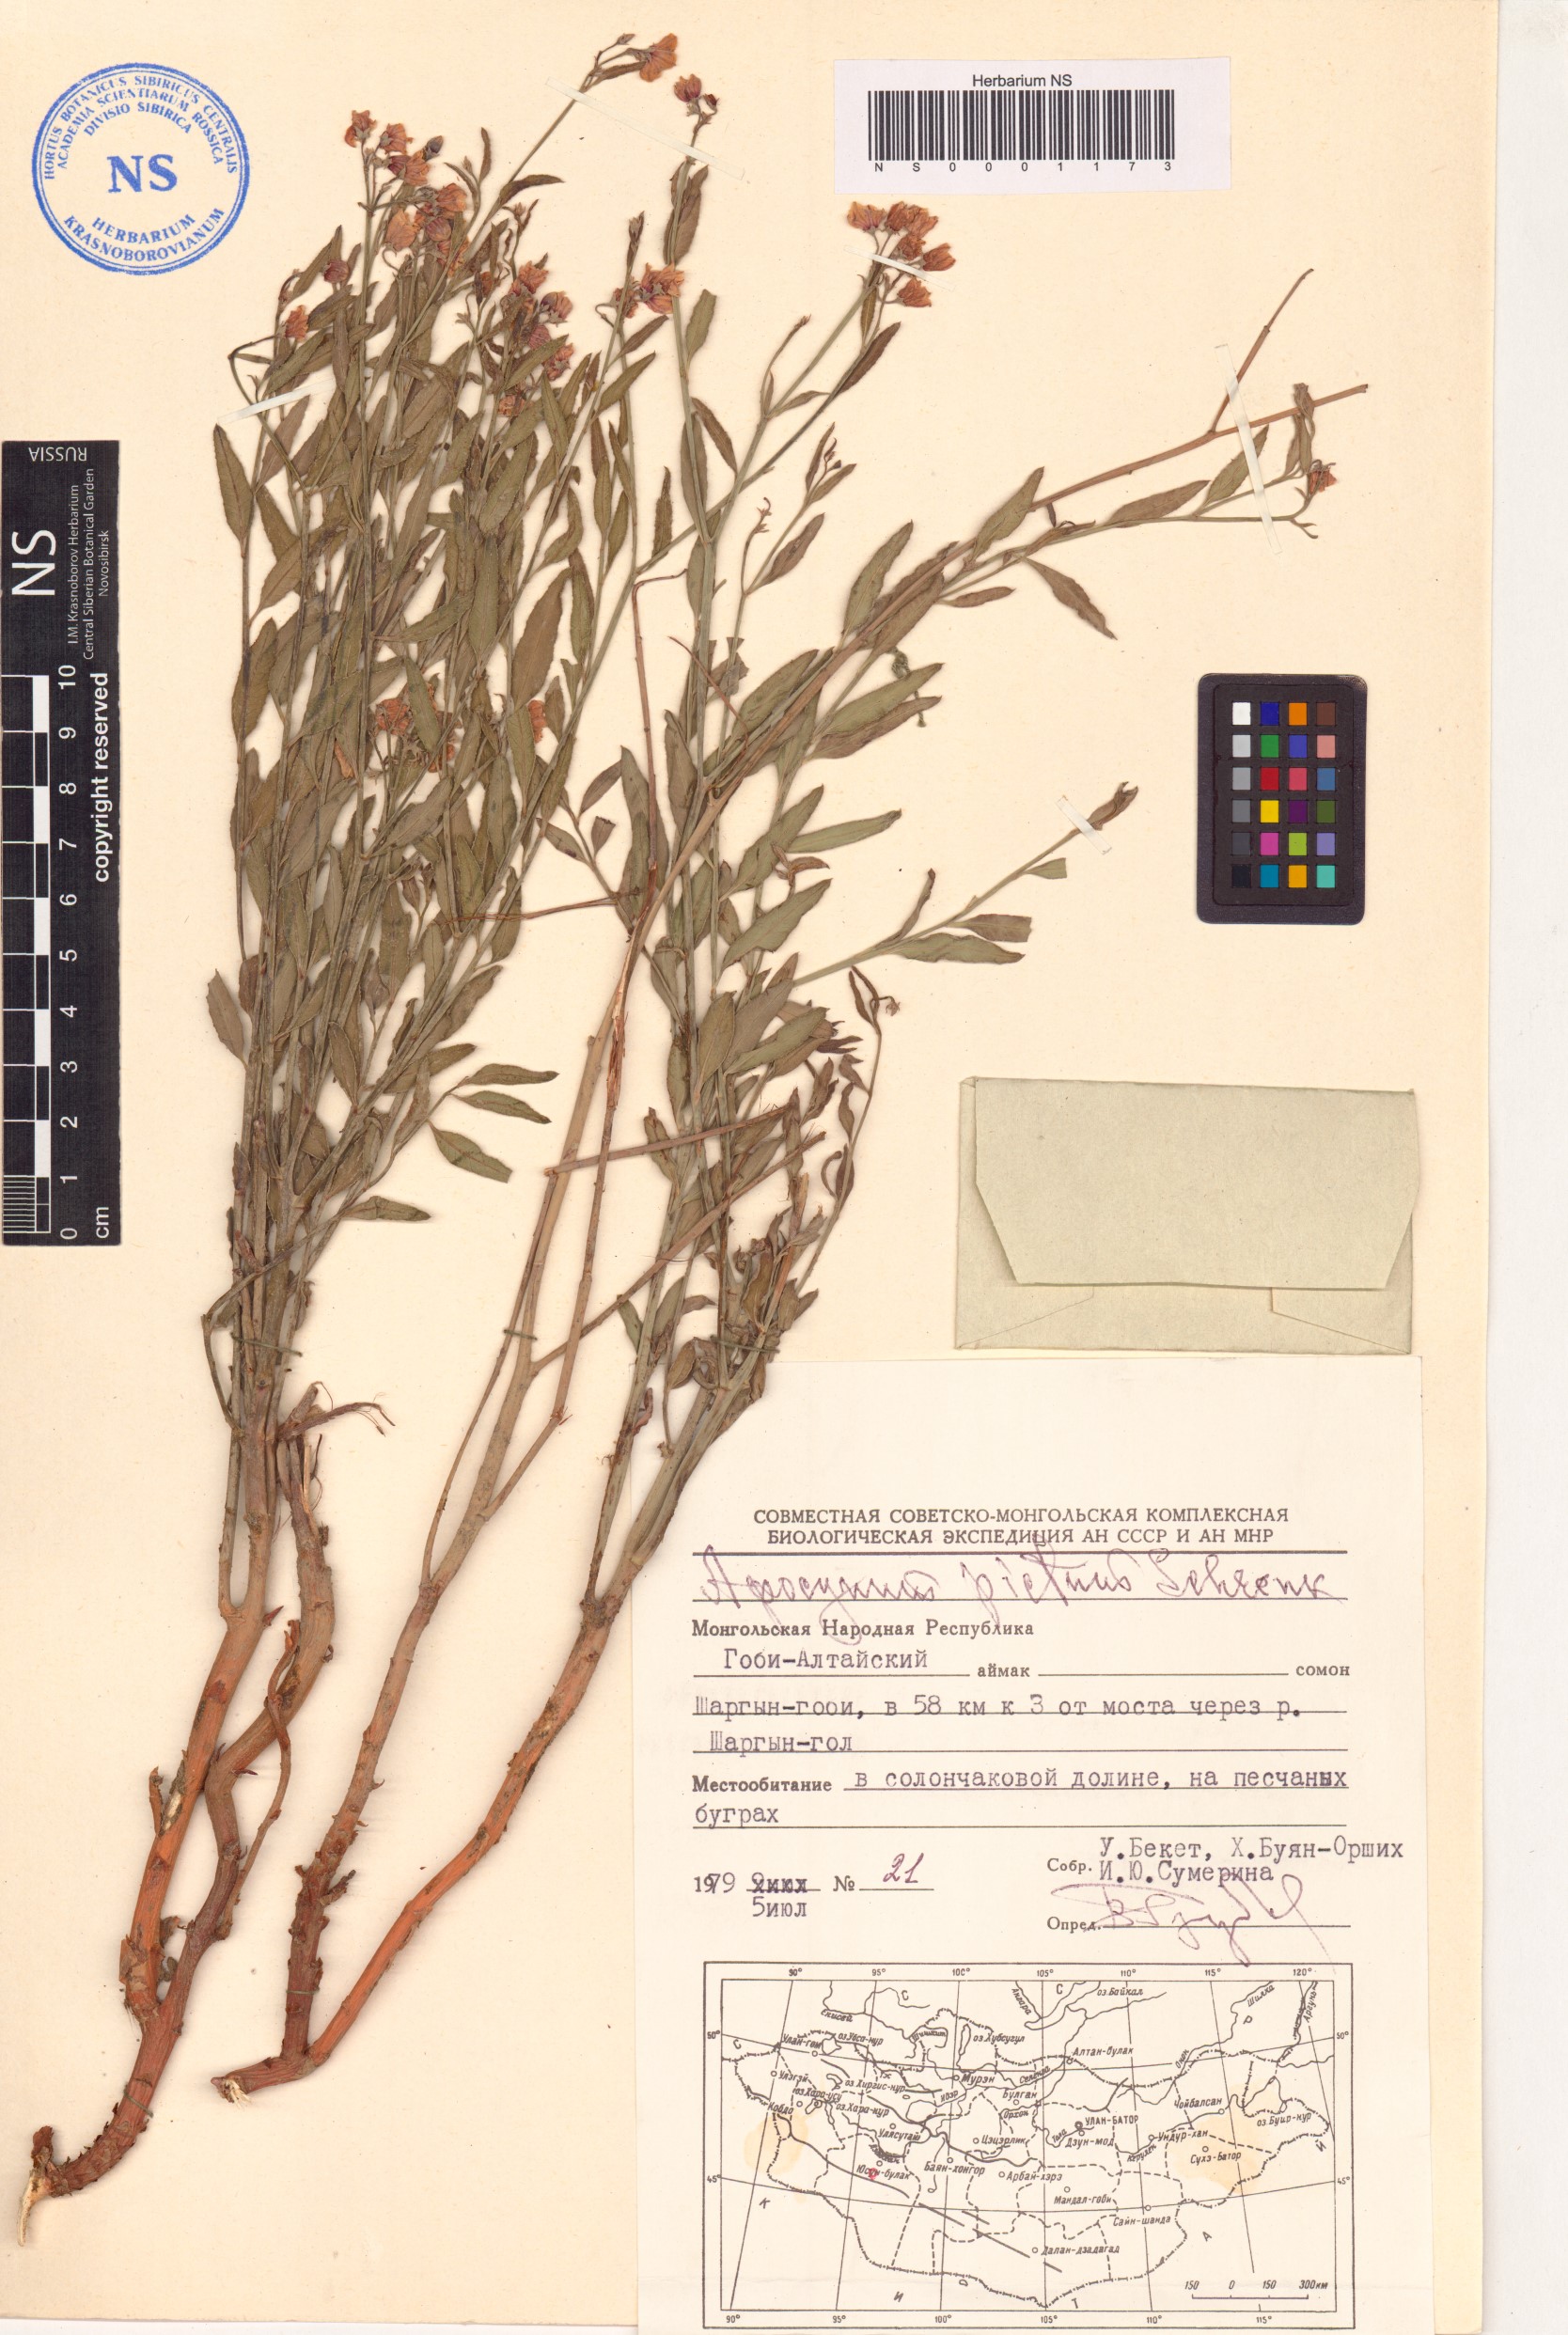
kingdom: Plantae
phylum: Tracheophyta
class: Magnoliopsida
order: Gentianales
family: Apocynaceae
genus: Poacynum
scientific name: Poacynum pictum
